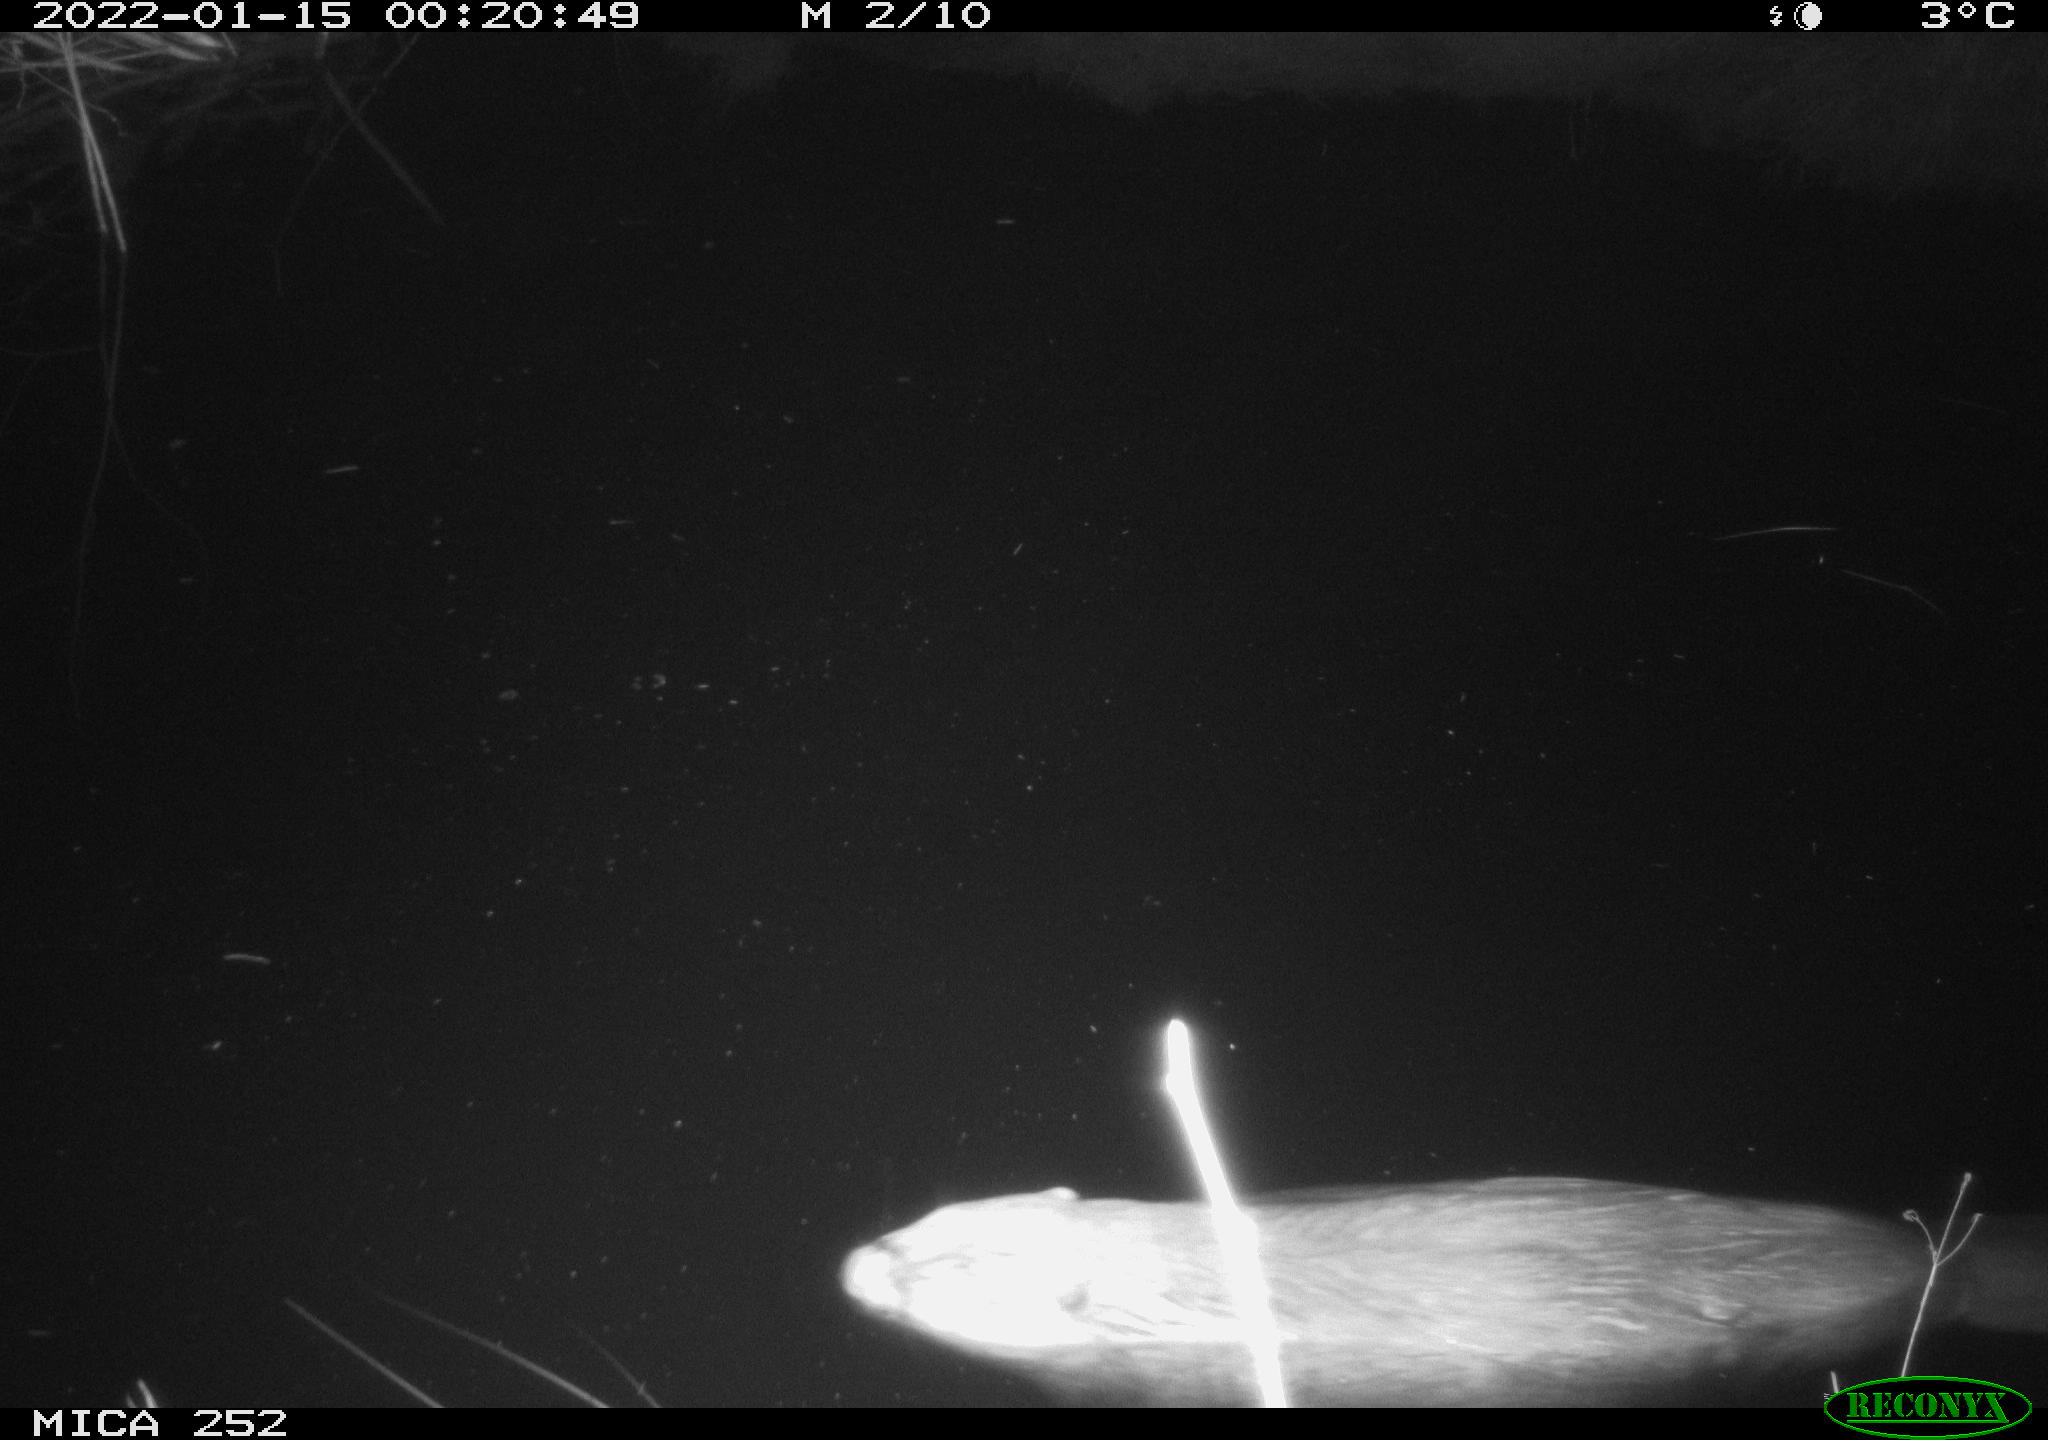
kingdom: Animalia
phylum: Chordata
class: Mammalia
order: Rodentia
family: Castoridae
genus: Castor
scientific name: Castor fiber
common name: Eurasian beaver
